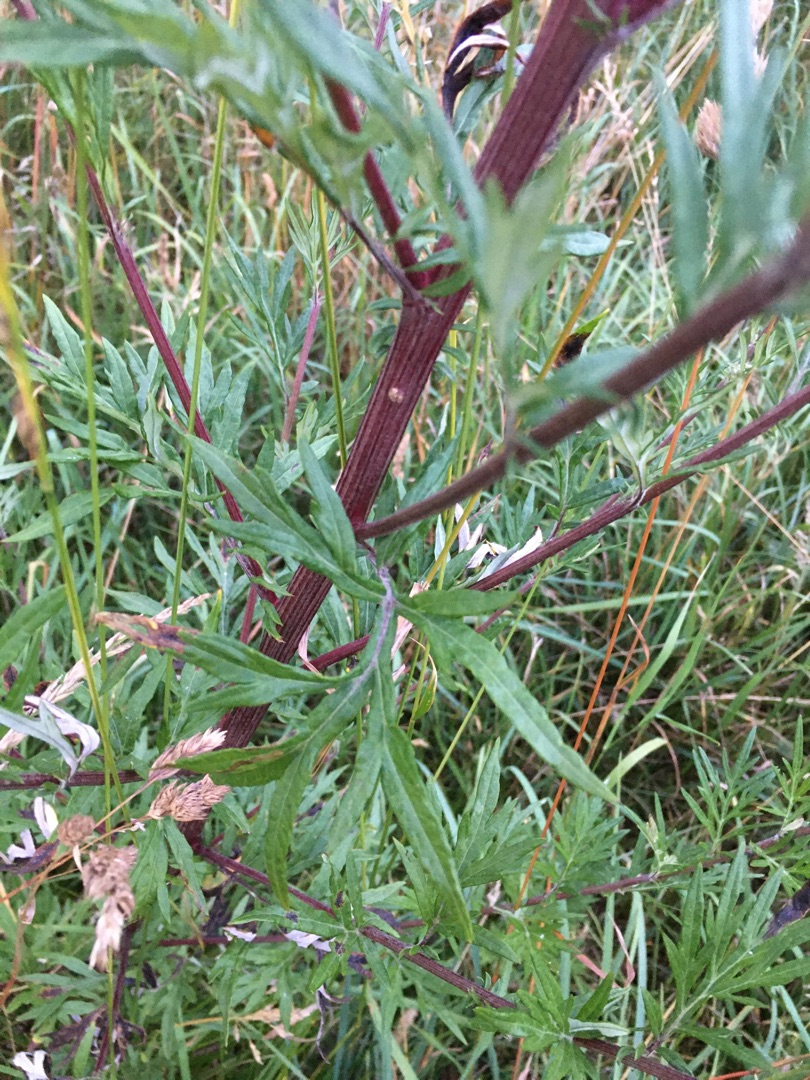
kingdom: Plantae
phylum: Tracheophyta
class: Magnoliopsida
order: Asterales
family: Asteraceae
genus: Artemisia
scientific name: Artemisia vulgaris
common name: Grå-bynke
